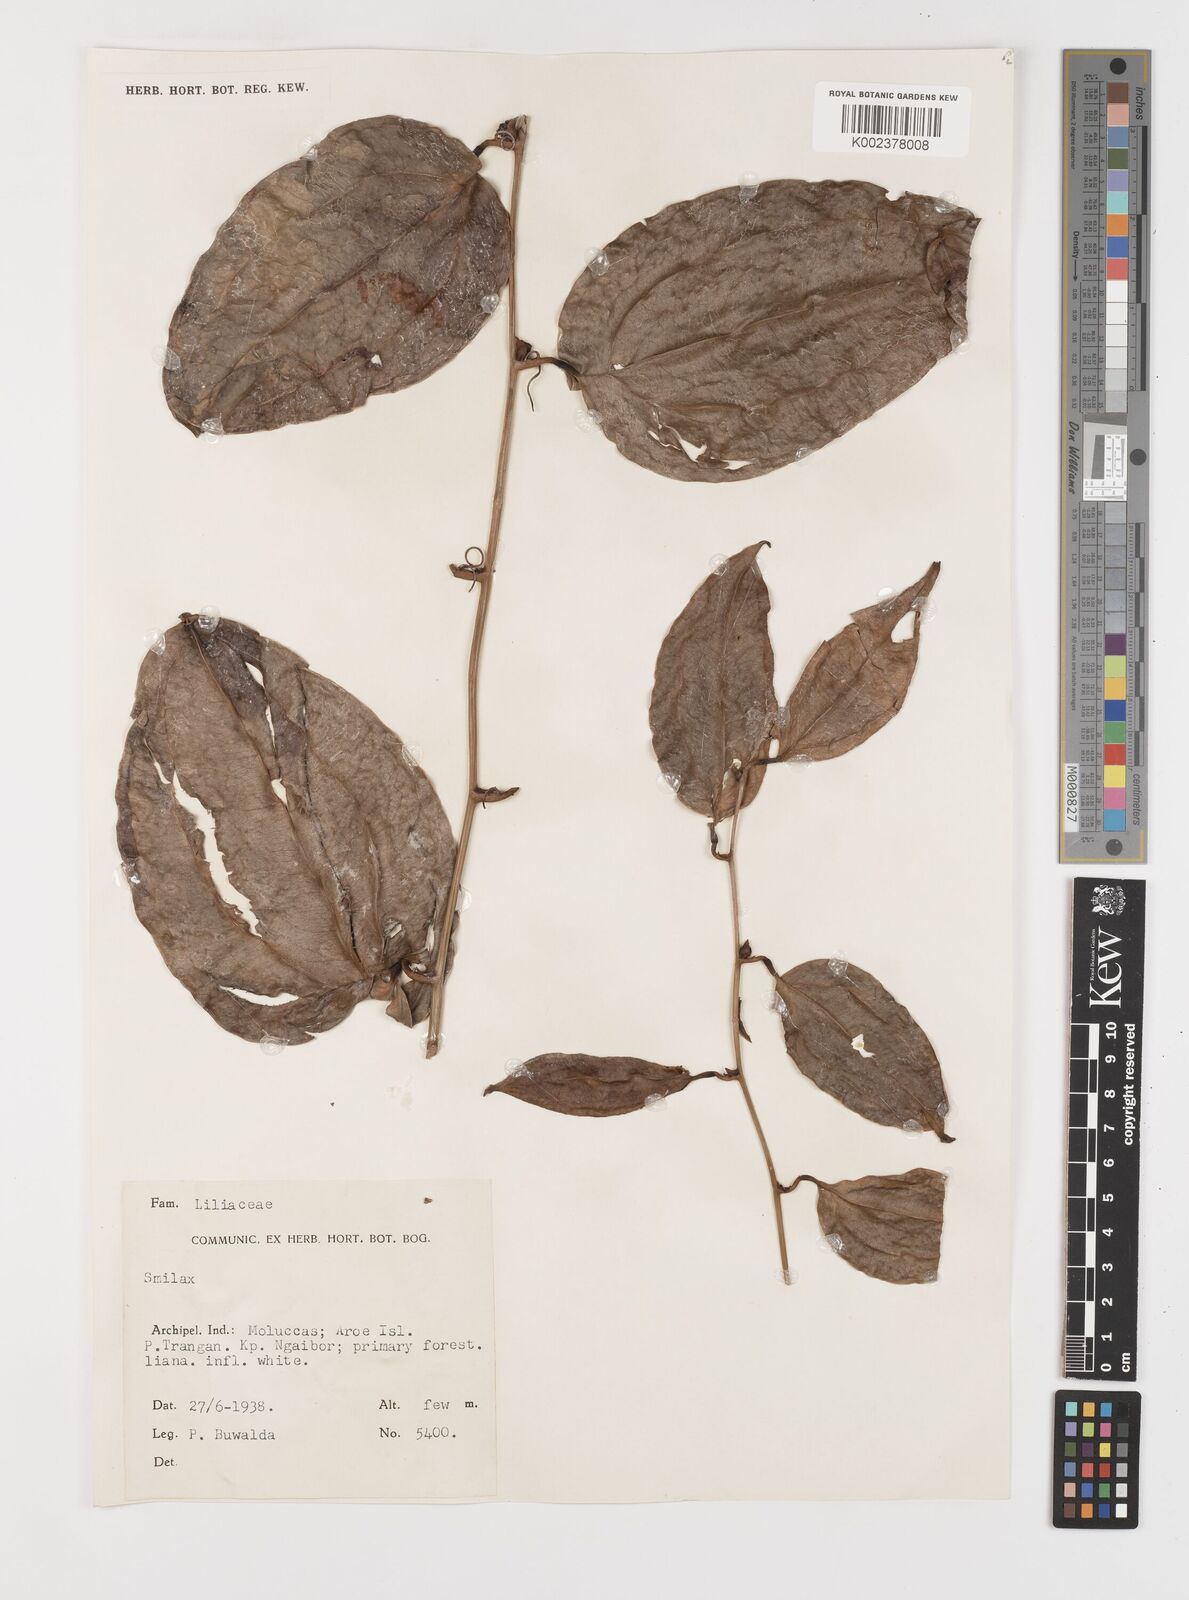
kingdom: Plantae
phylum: Tracheophyta
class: Liliopsida
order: Liliales
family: Smilacaceae
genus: Smilax
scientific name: Smilax
